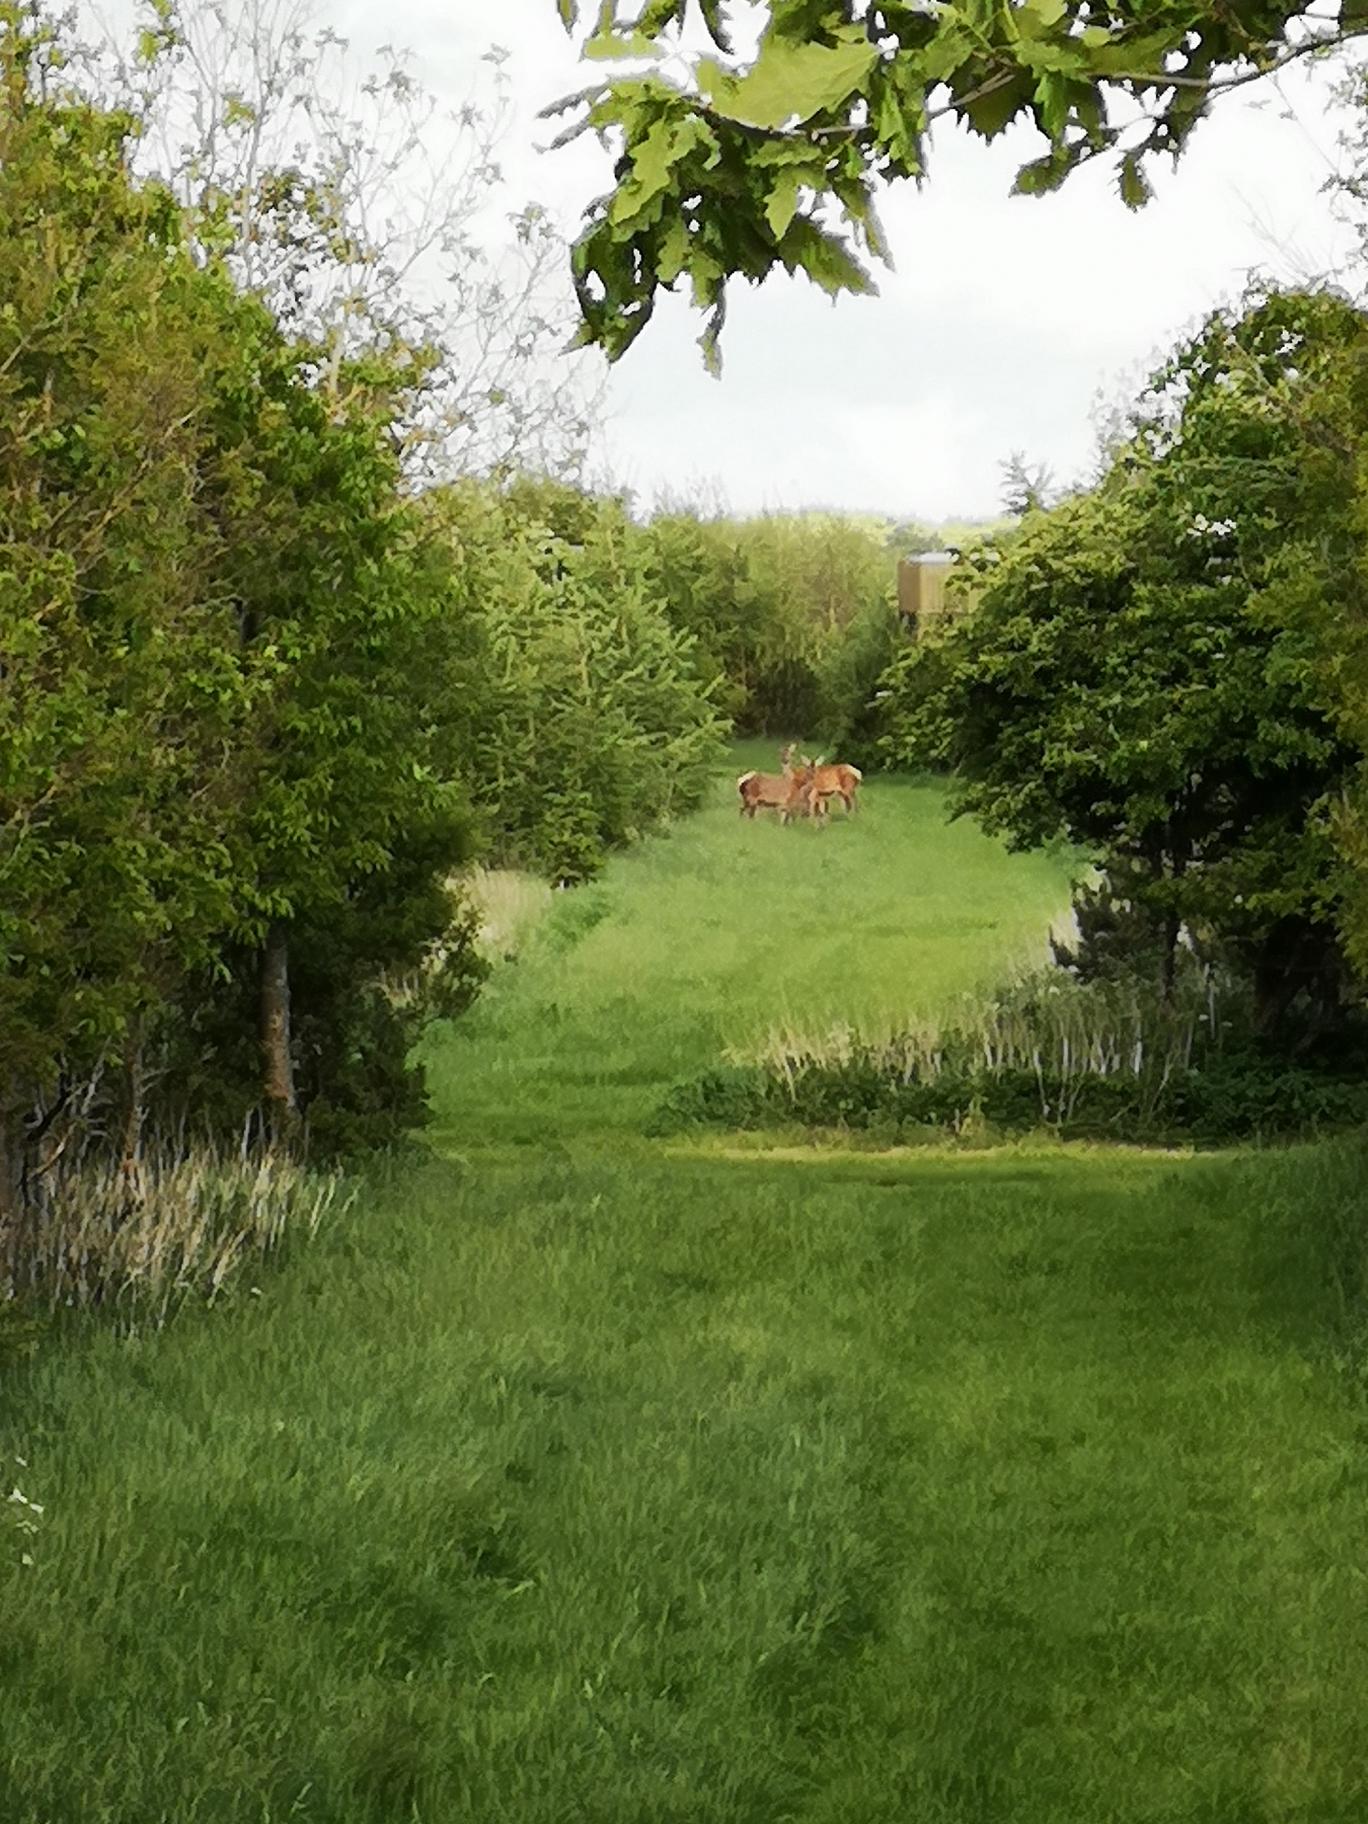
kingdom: Animalia
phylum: Chordata
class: Mammalia
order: Artiodactyla
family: Cervidae
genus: Cervus
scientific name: Cervus elaphus
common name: Krondyr
